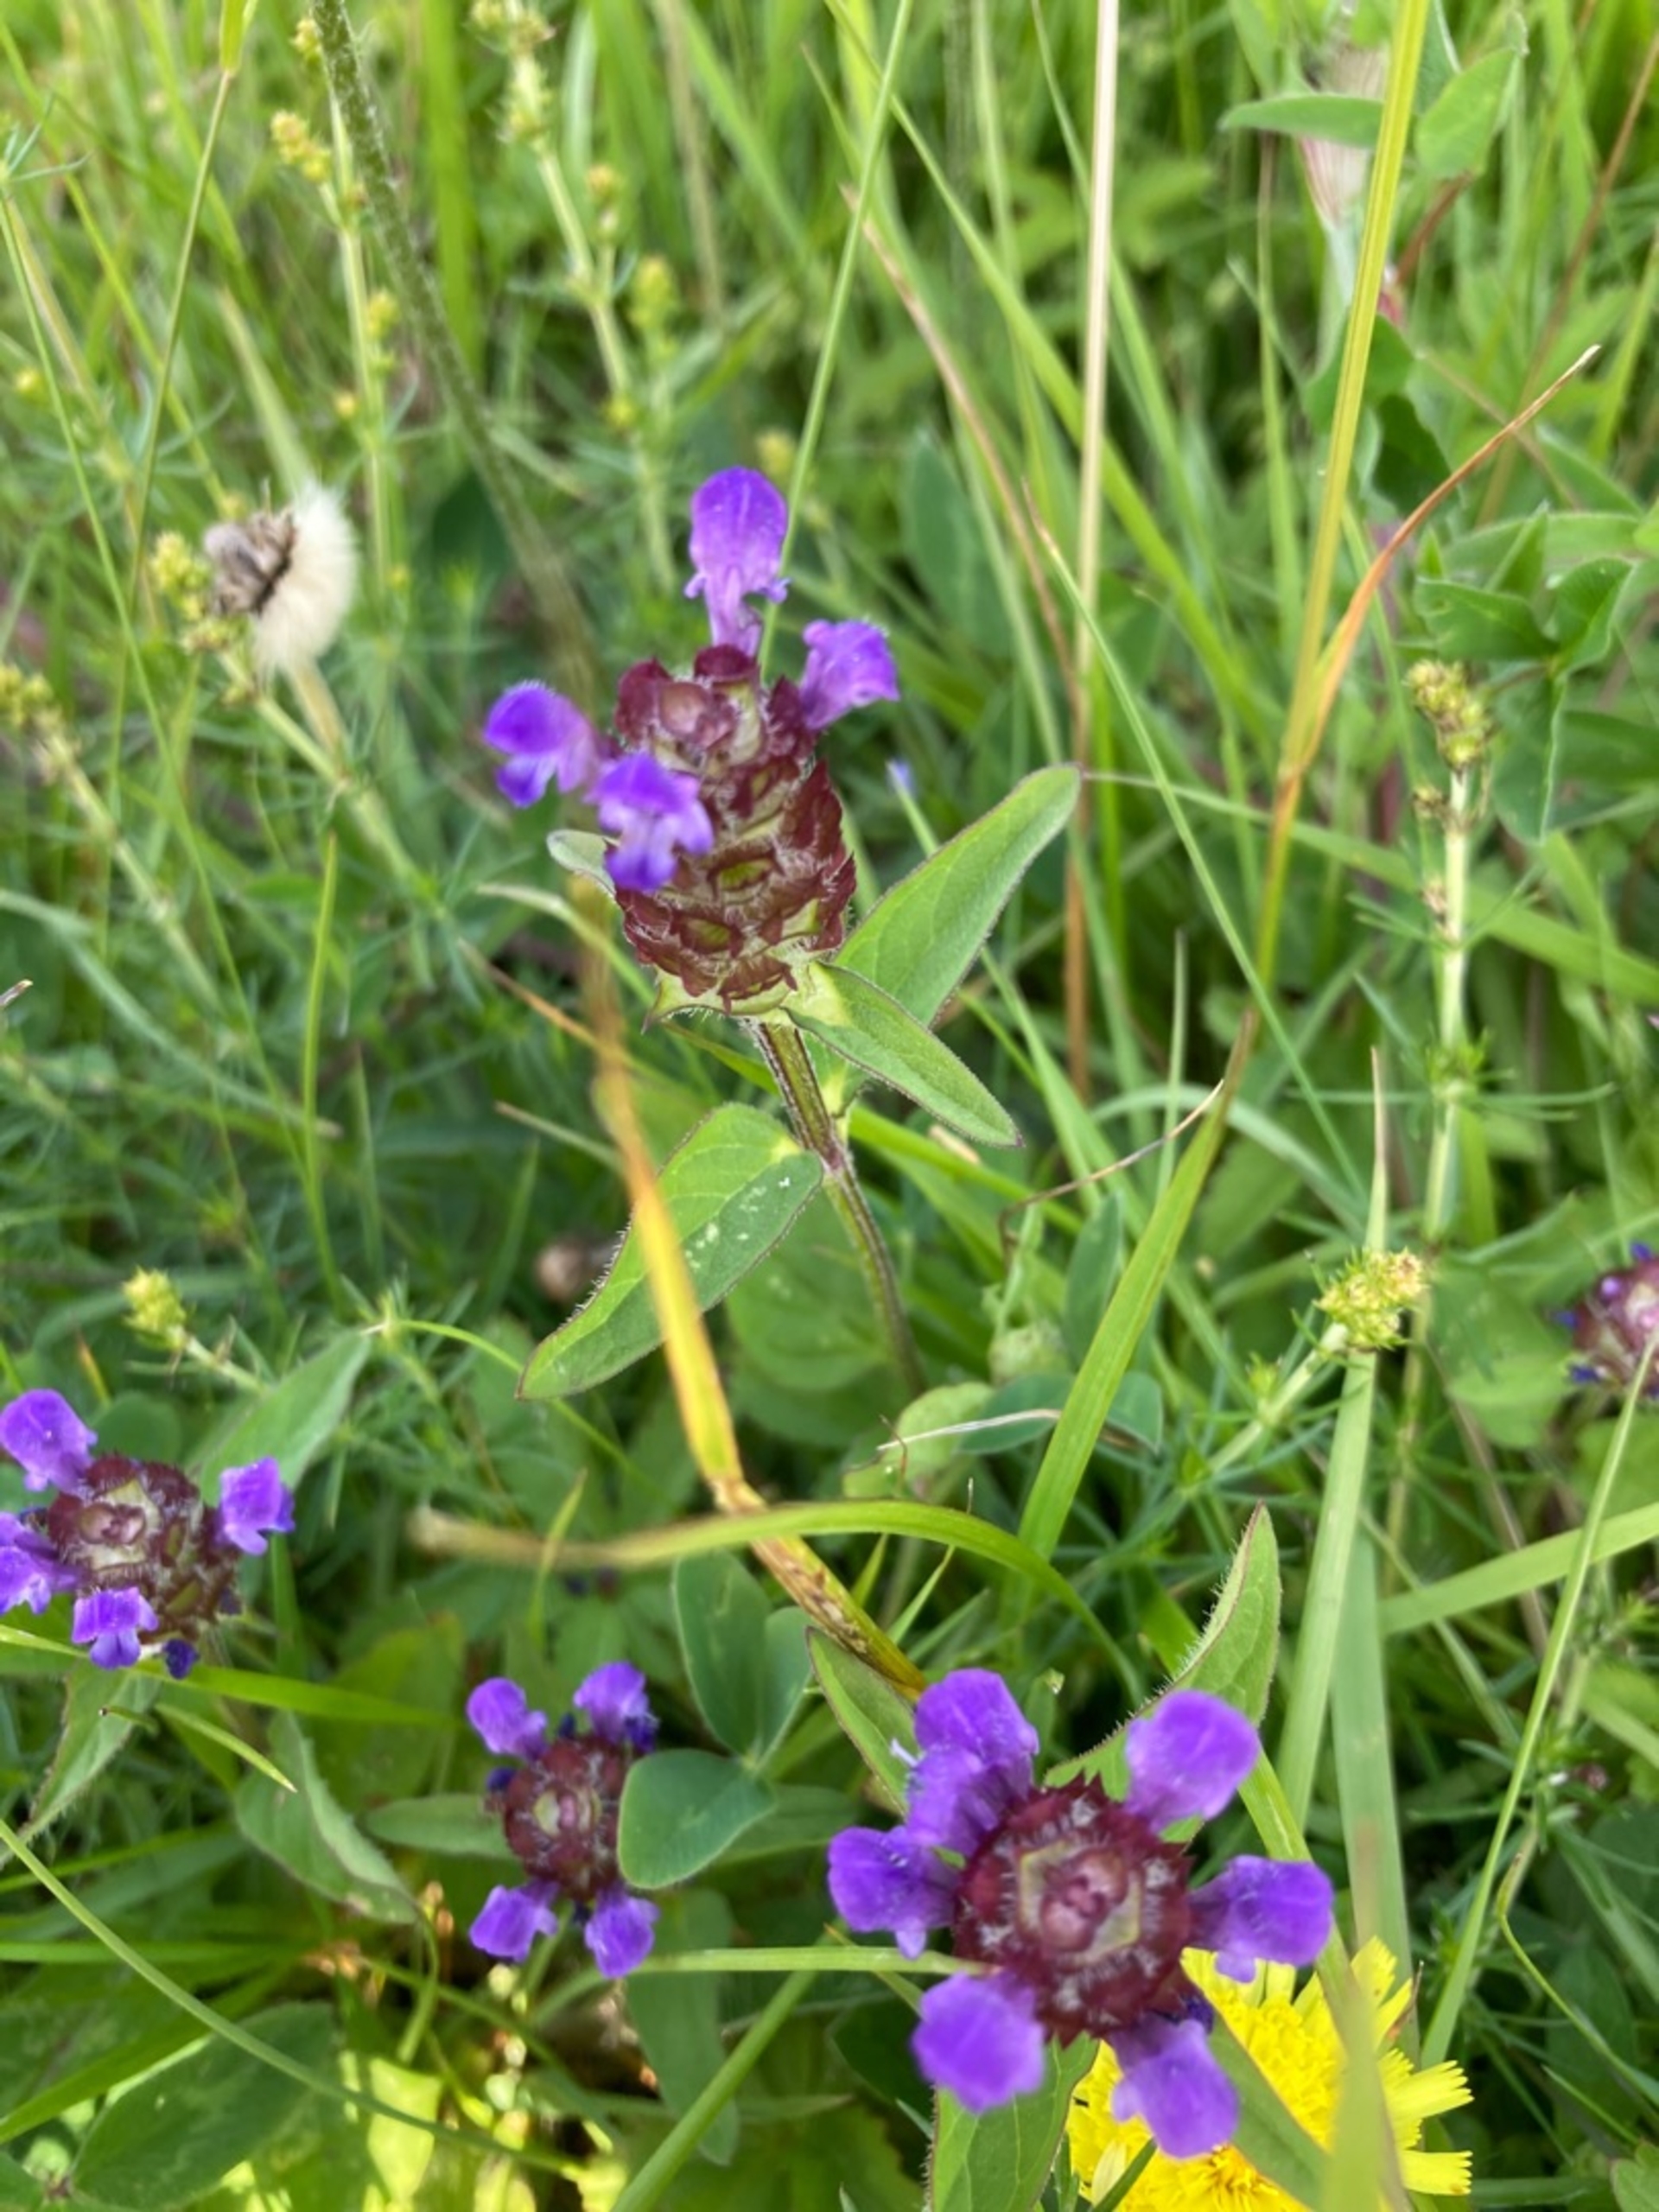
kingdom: Plantae
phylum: Tracheophyta
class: Magnoliopsida
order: Lamiales
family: Lamiaceae
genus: Prunella
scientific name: Prunella vulgaris
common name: Almindelig brunelle
